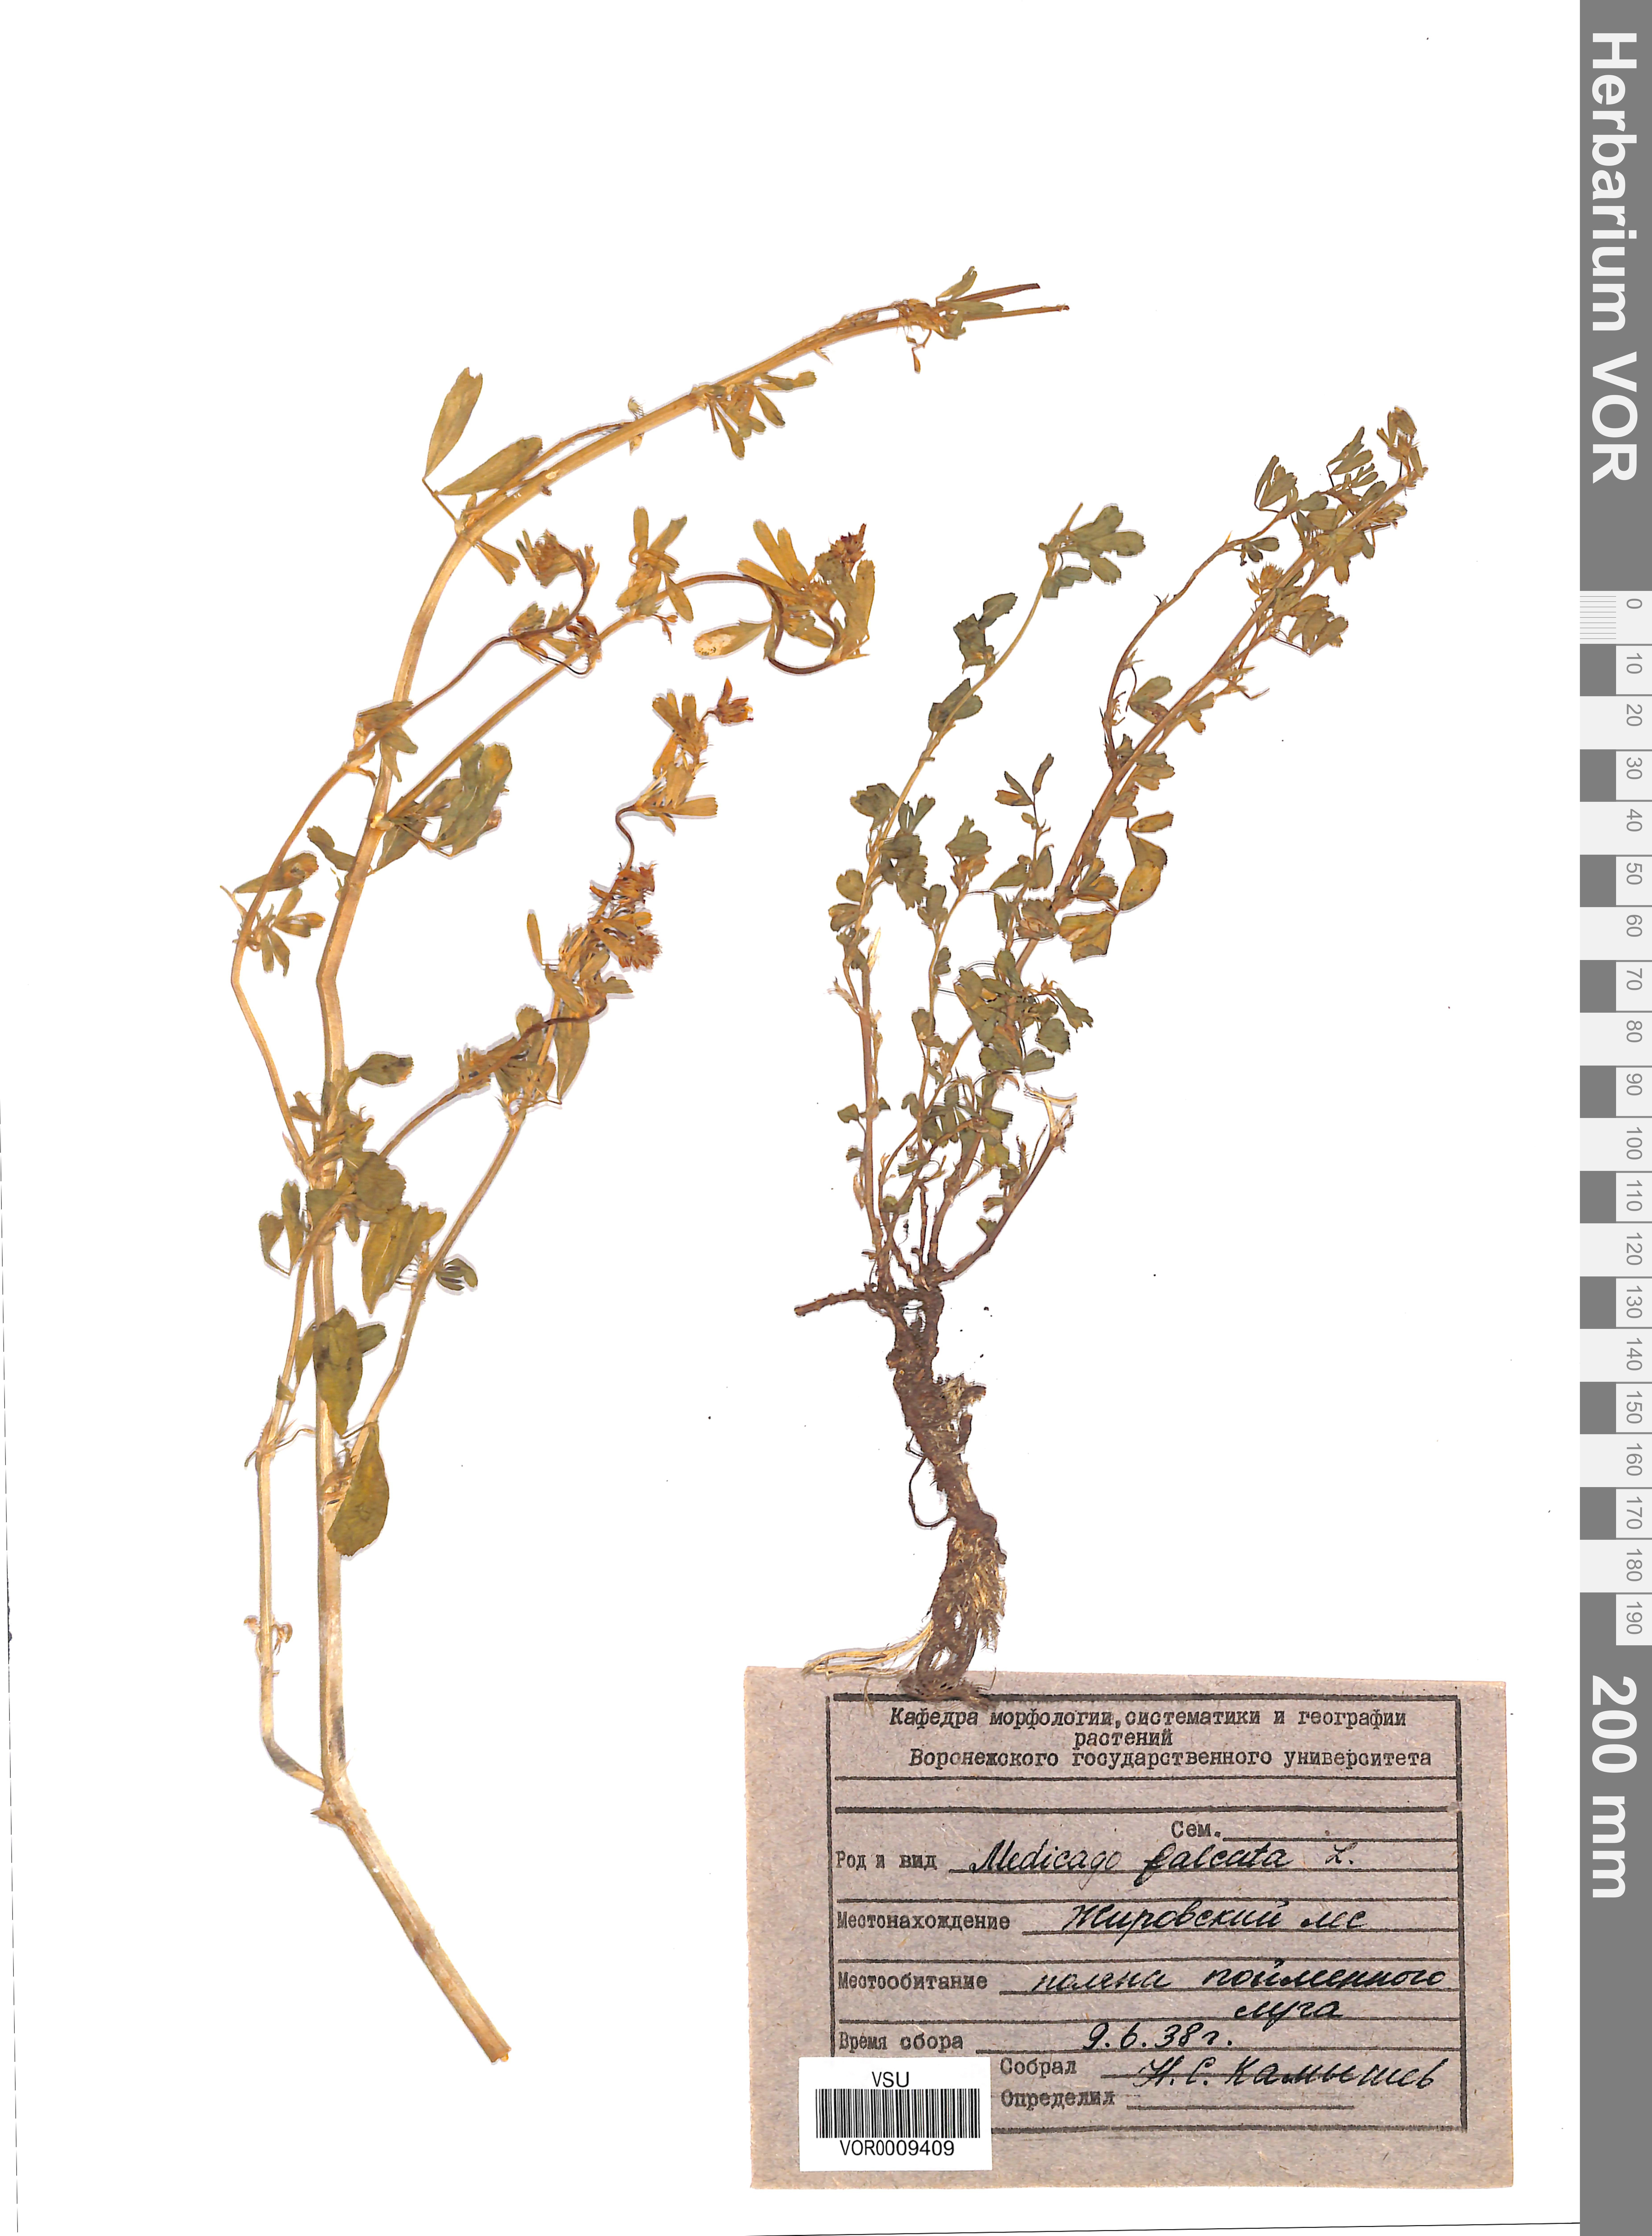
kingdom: Plantae
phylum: Tracheophyta
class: Magnoliopsida
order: Fabales
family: Fabaceae
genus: Medicago
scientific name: Medicago falcata
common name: Sickle medick
